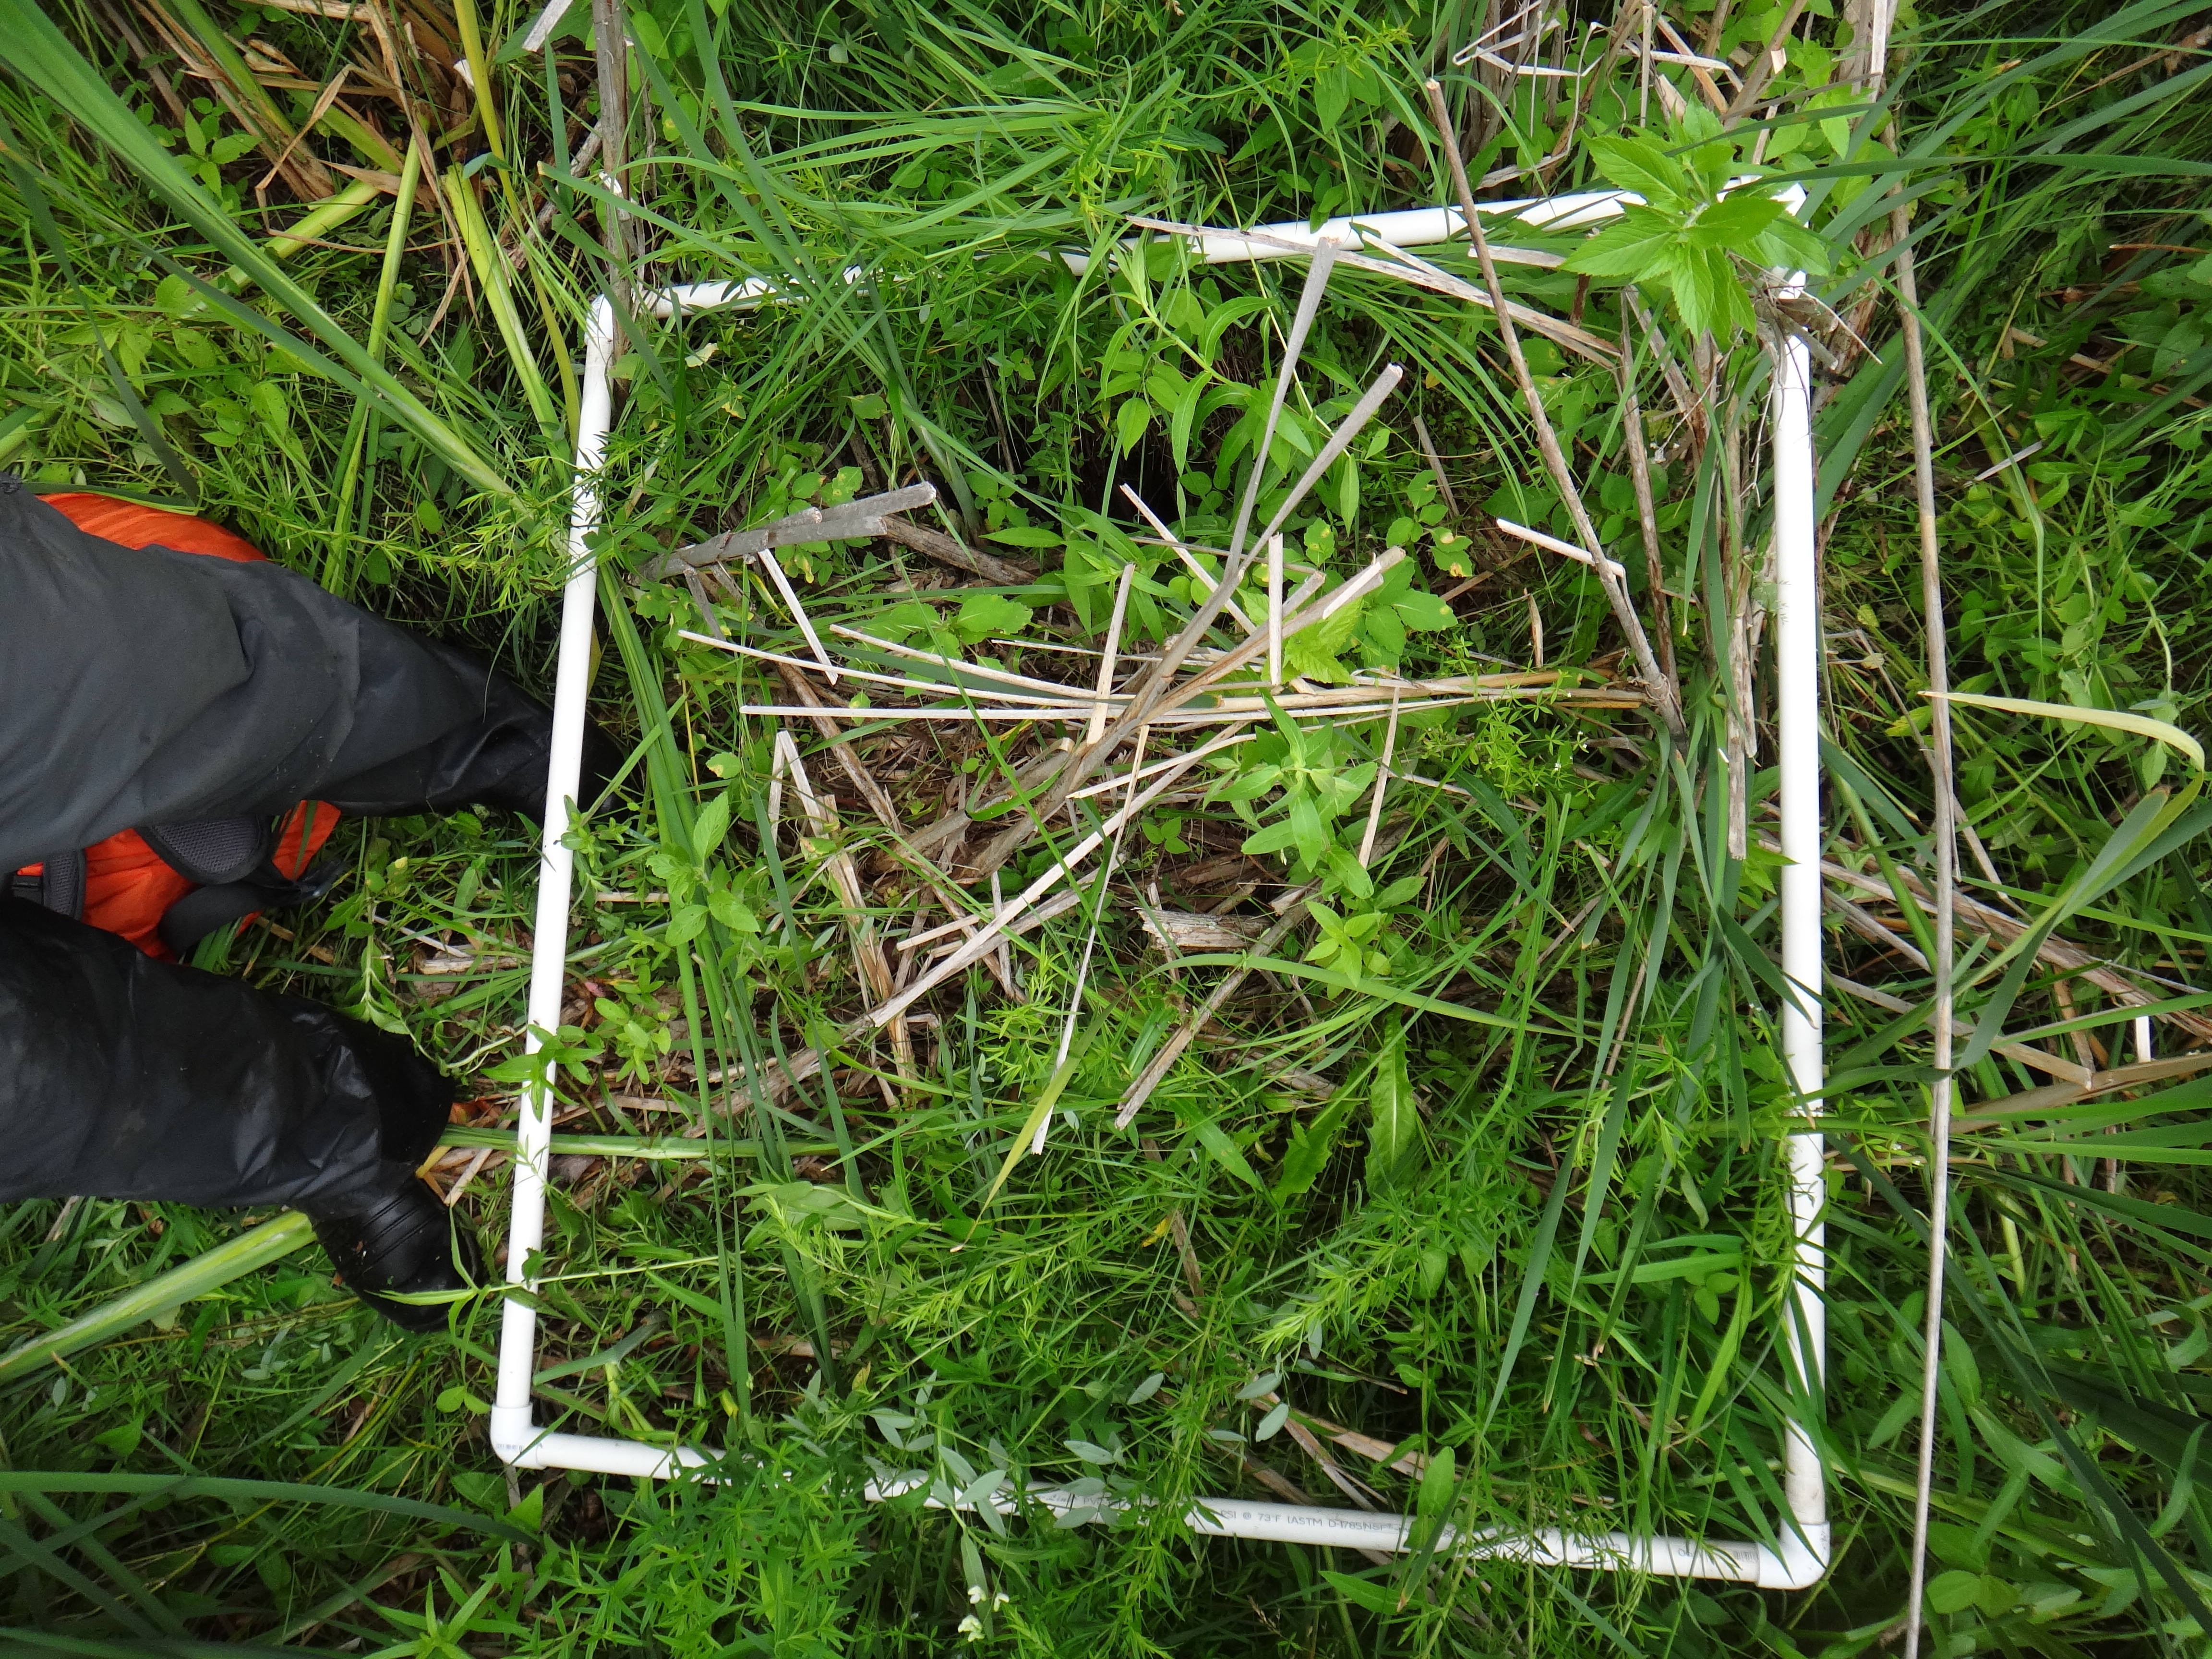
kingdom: Plantae
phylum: Tracheophyta
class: Magnoliopsida
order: Asterales
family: Asteraceae
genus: Symphyotrichum
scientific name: Symphyotrichum puniceum
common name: Bog aster
